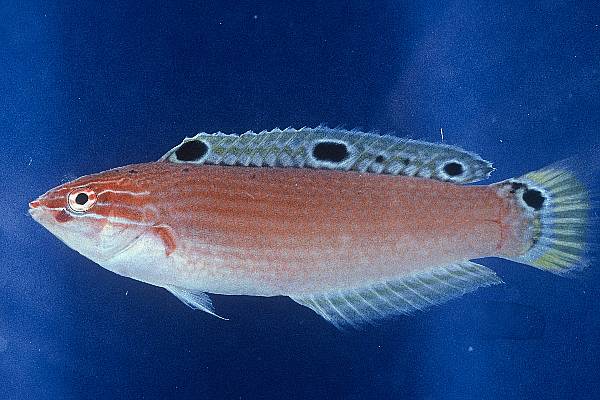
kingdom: Animalia
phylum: Chordata
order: Perciformes
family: Labridae
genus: Halichoeres
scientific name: Halichoeres trispilus
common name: Threespot wrasse
